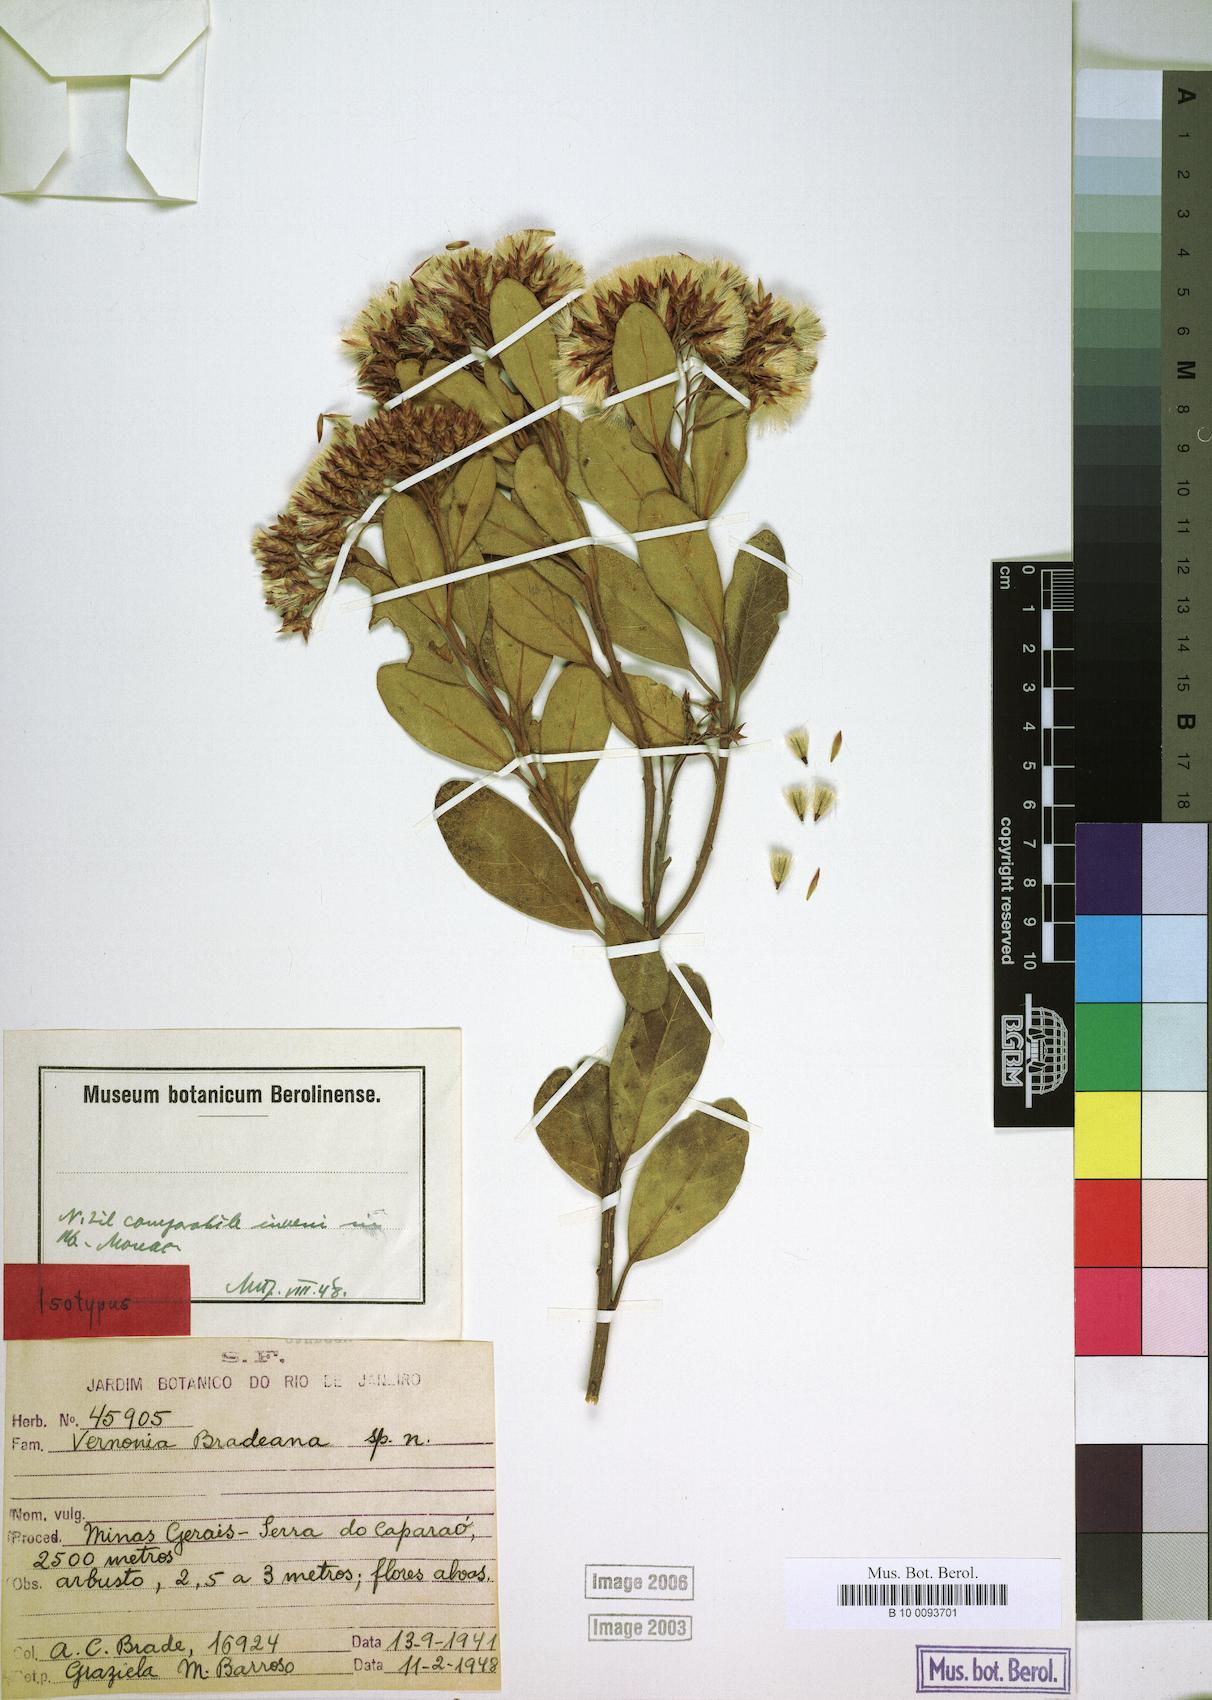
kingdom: Plantae
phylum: Tracheophyta
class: Magnoliopsida
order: Asterales
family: Asteraceae
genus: Critoniopsis
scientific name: Critoniopsis bradeana
